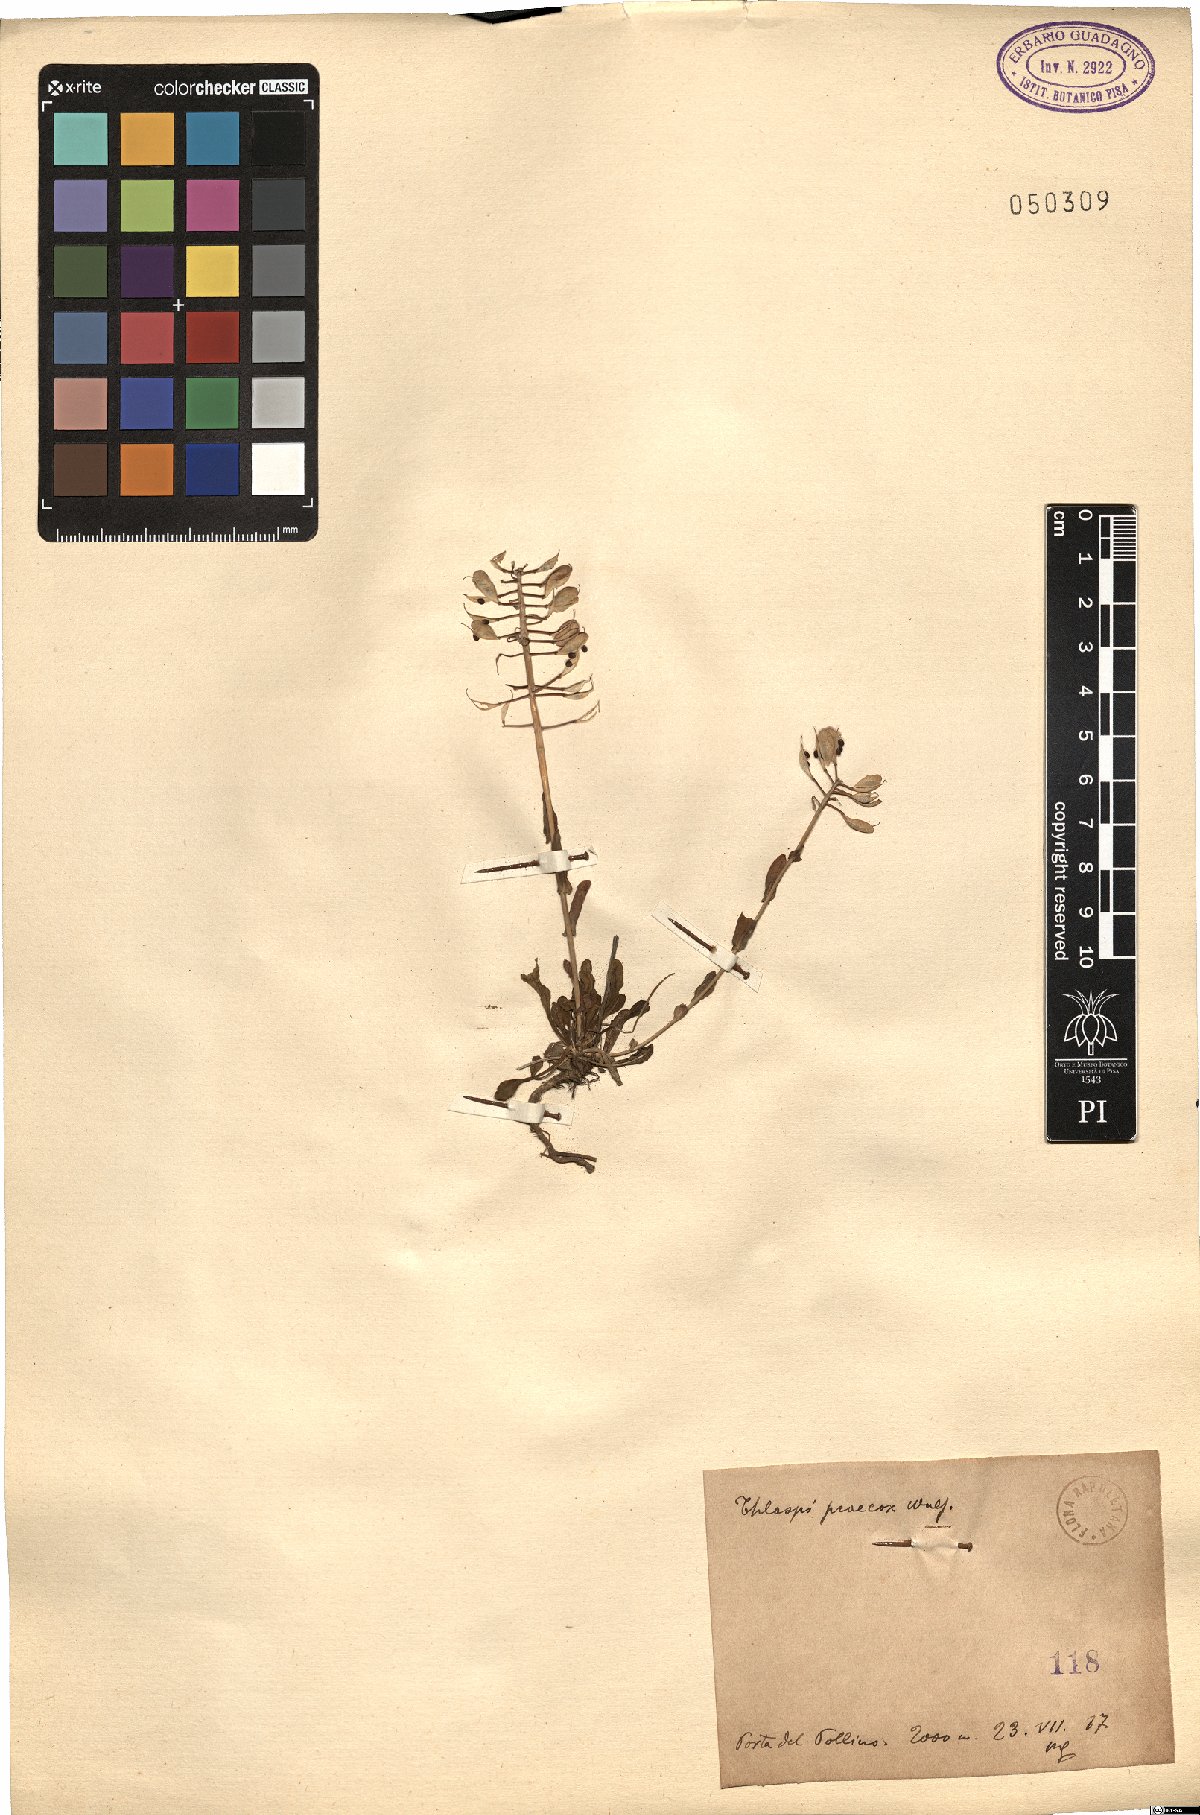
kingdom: Plantae
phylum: Tracheophyta
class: Magnoliopsida
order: Brassicales
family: Brassicaceae
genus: Noccaea
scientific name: Noccaea praecox
